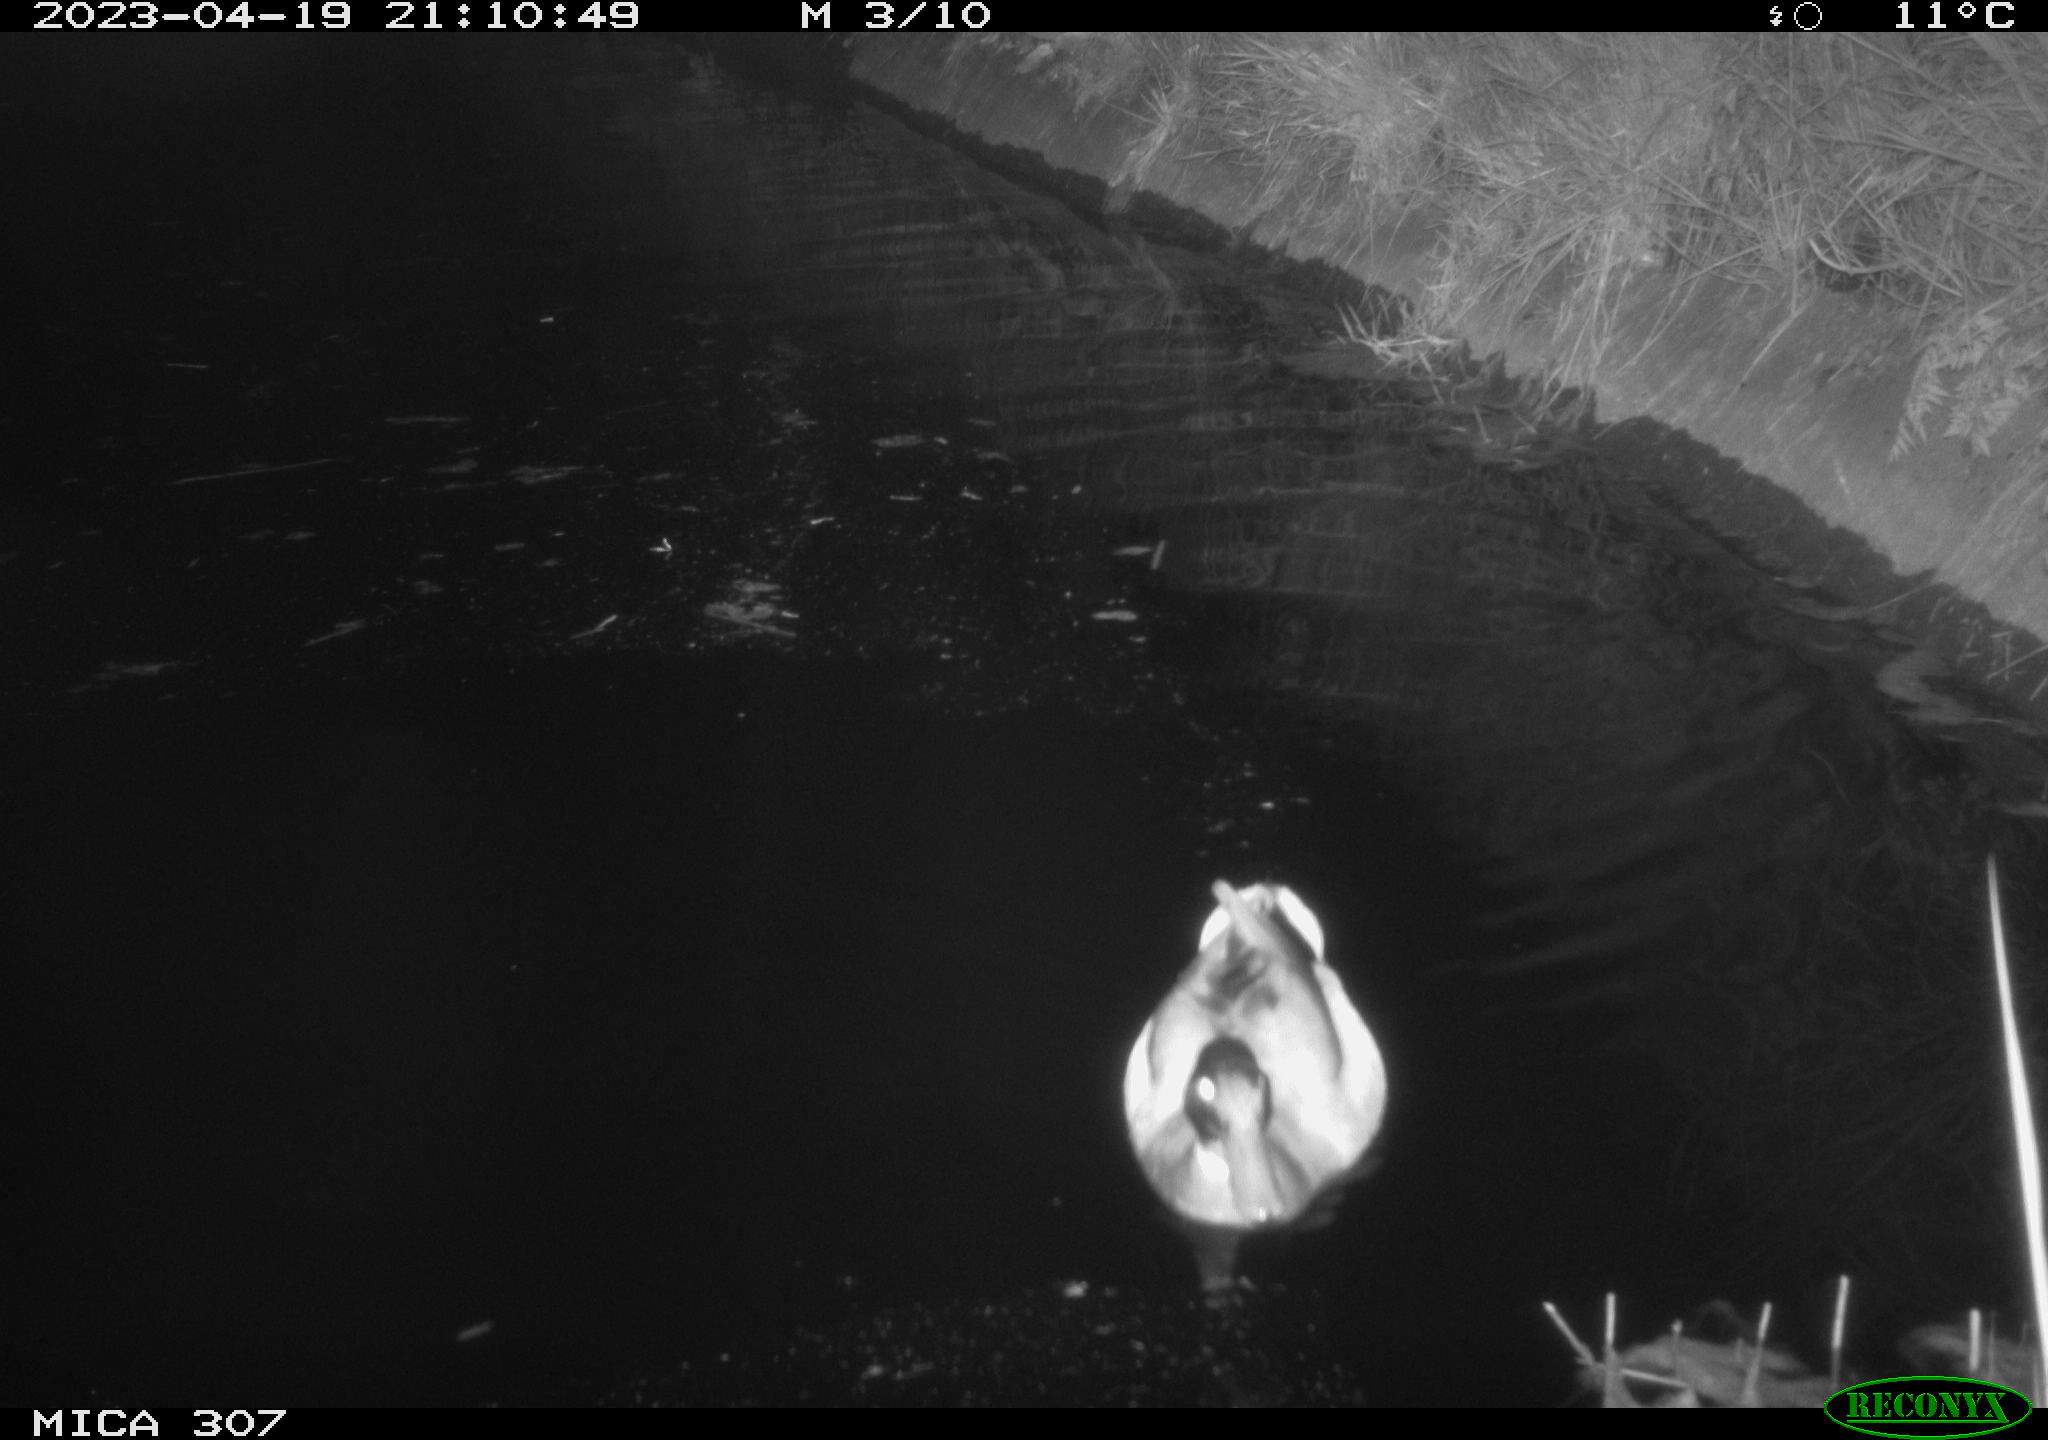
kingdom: Animalia
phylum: Chordata
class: Aves
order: Anseriformes
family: Anatidae
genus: Anas
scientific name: Anas
